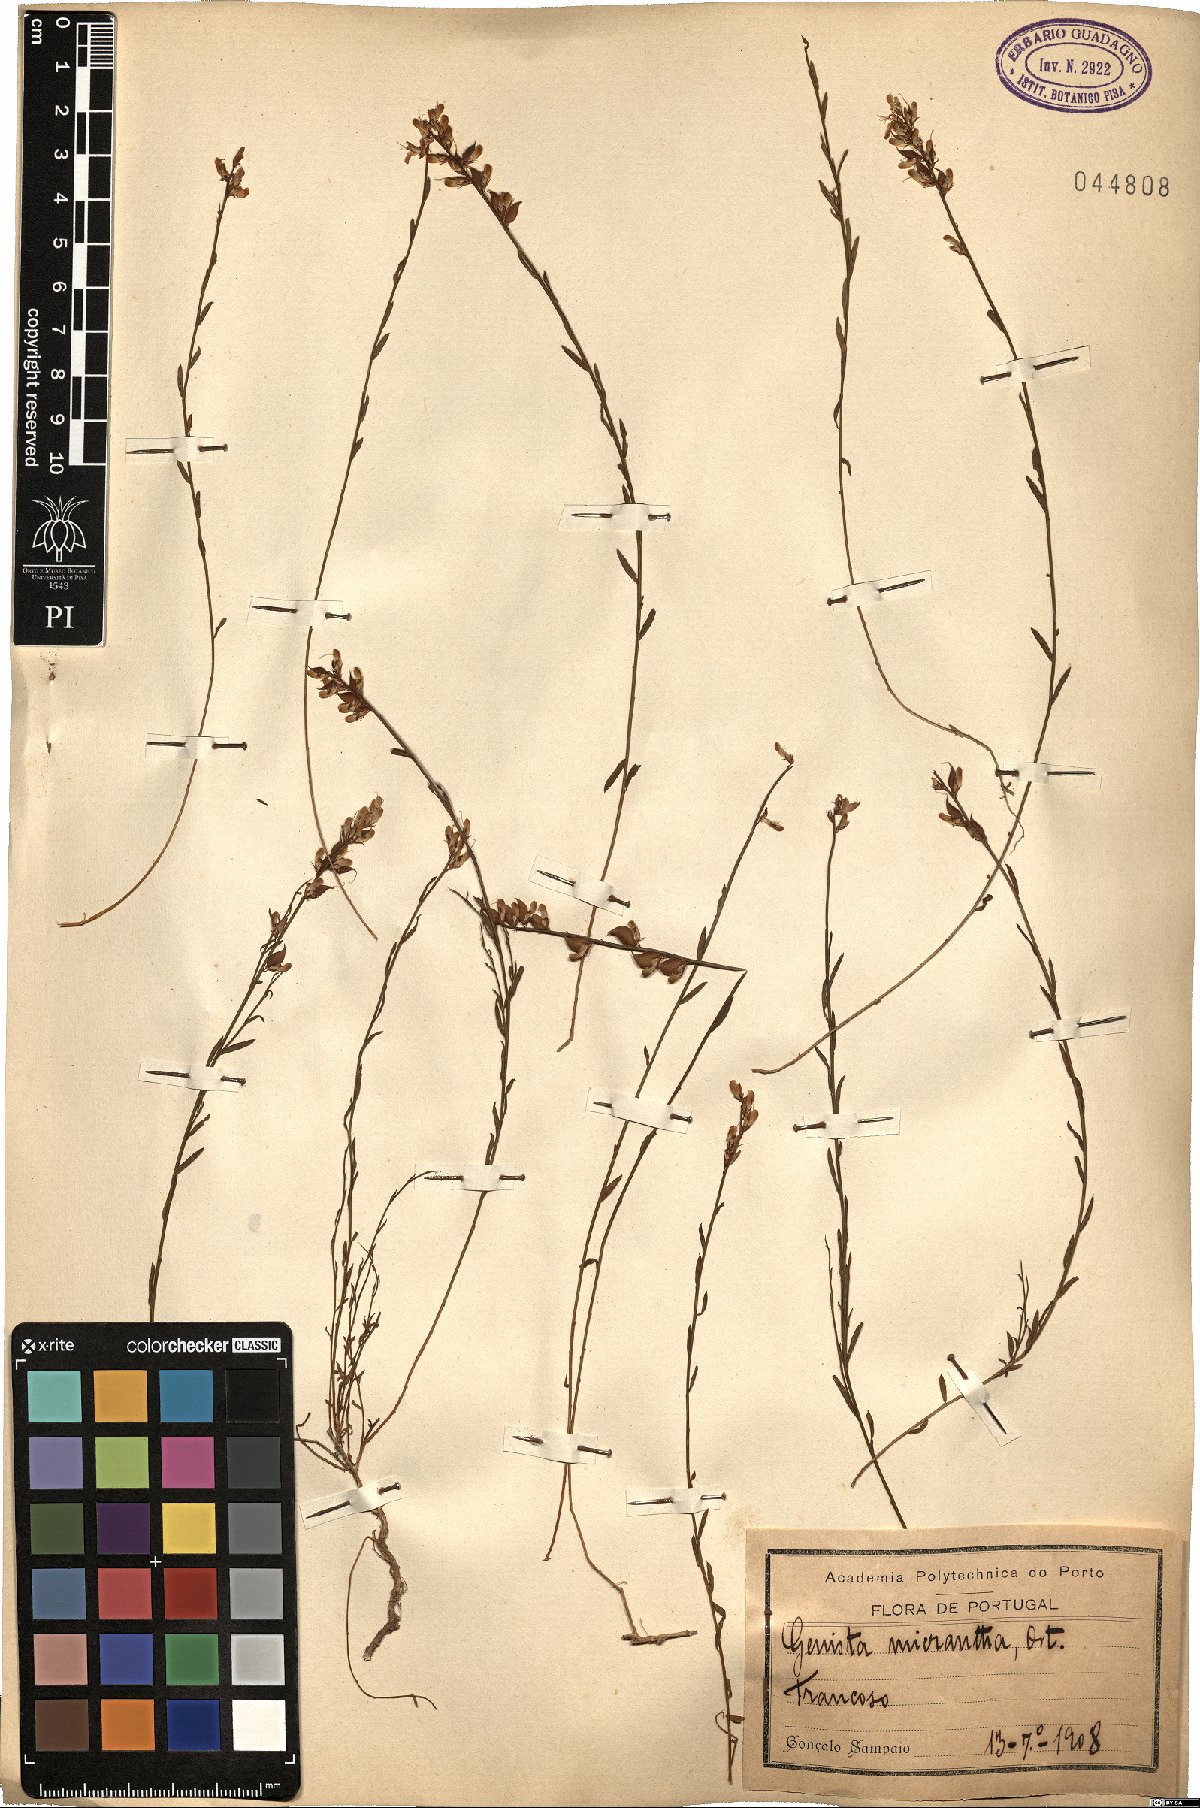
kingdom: Plantae
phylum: Tracheophyta
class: Magnoliopsida
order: Fabales
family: Fabaceae
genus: Genista
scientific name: Genista micrantha
